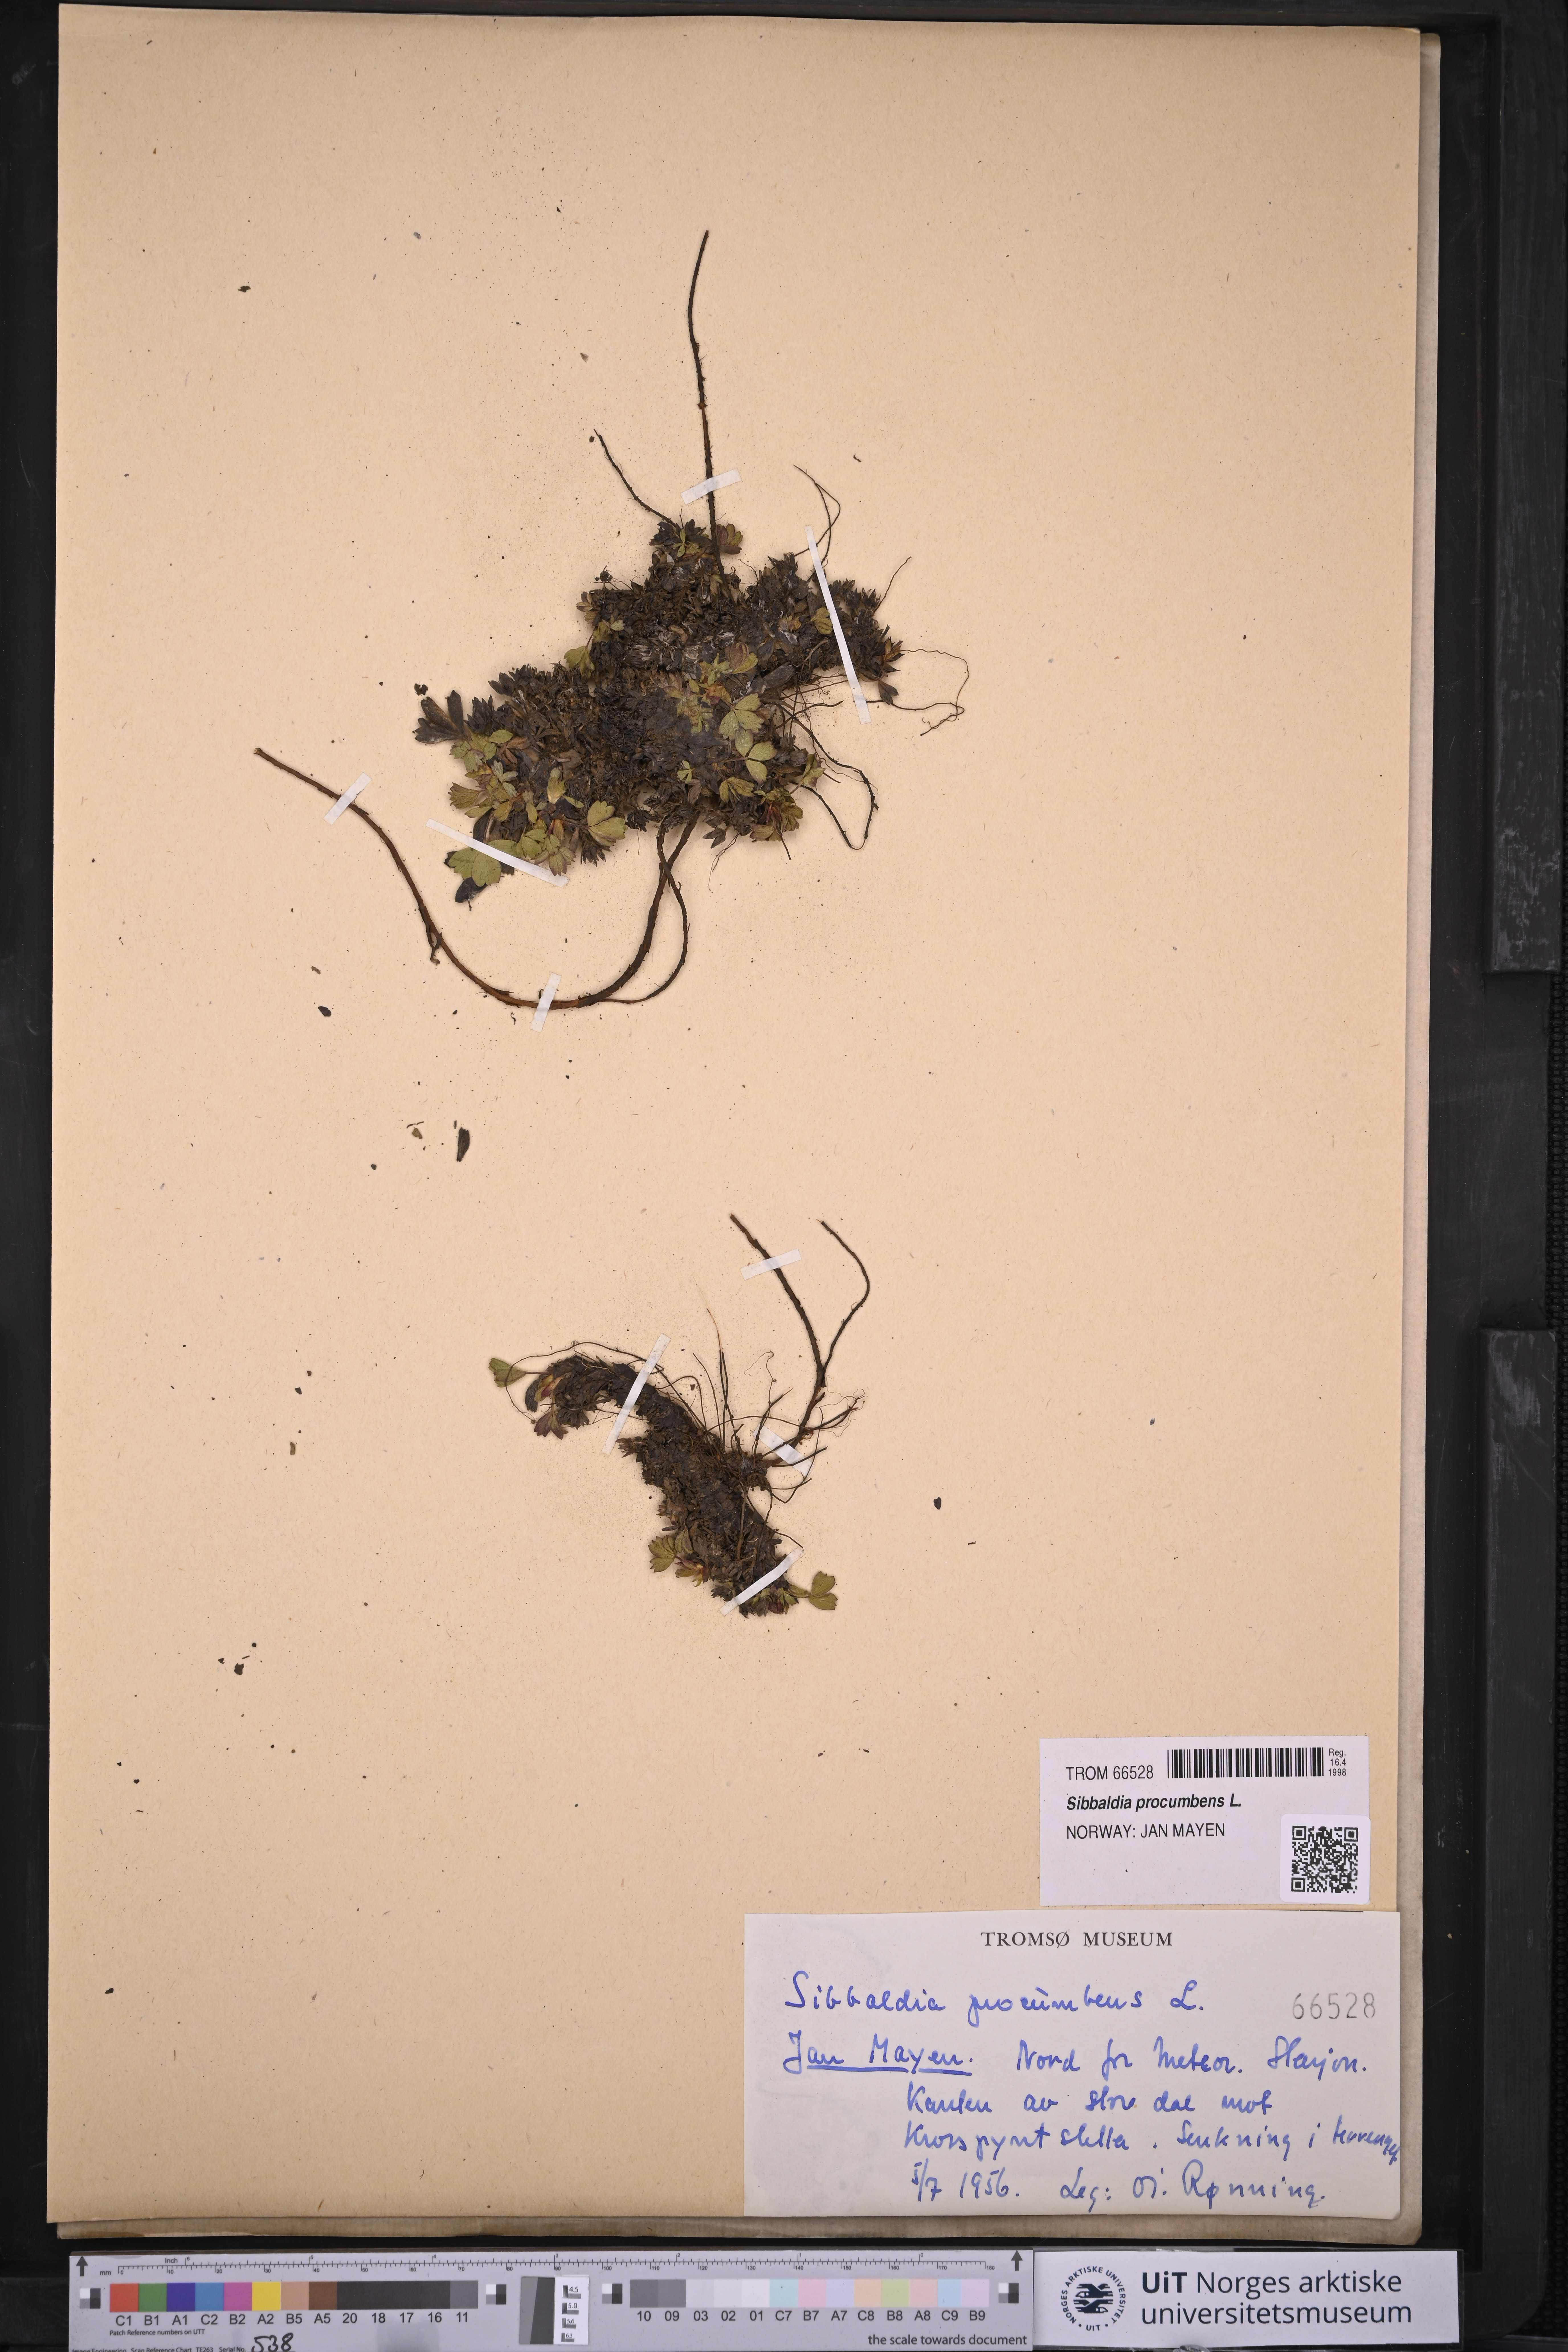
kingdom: Plantae
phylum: Tracheophyta
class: Magnoliopsida
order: Rosales
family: Rosaceae
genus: Sibbaldia
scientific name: Sibbaldia procumbens
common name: Creeping sibbaldia
